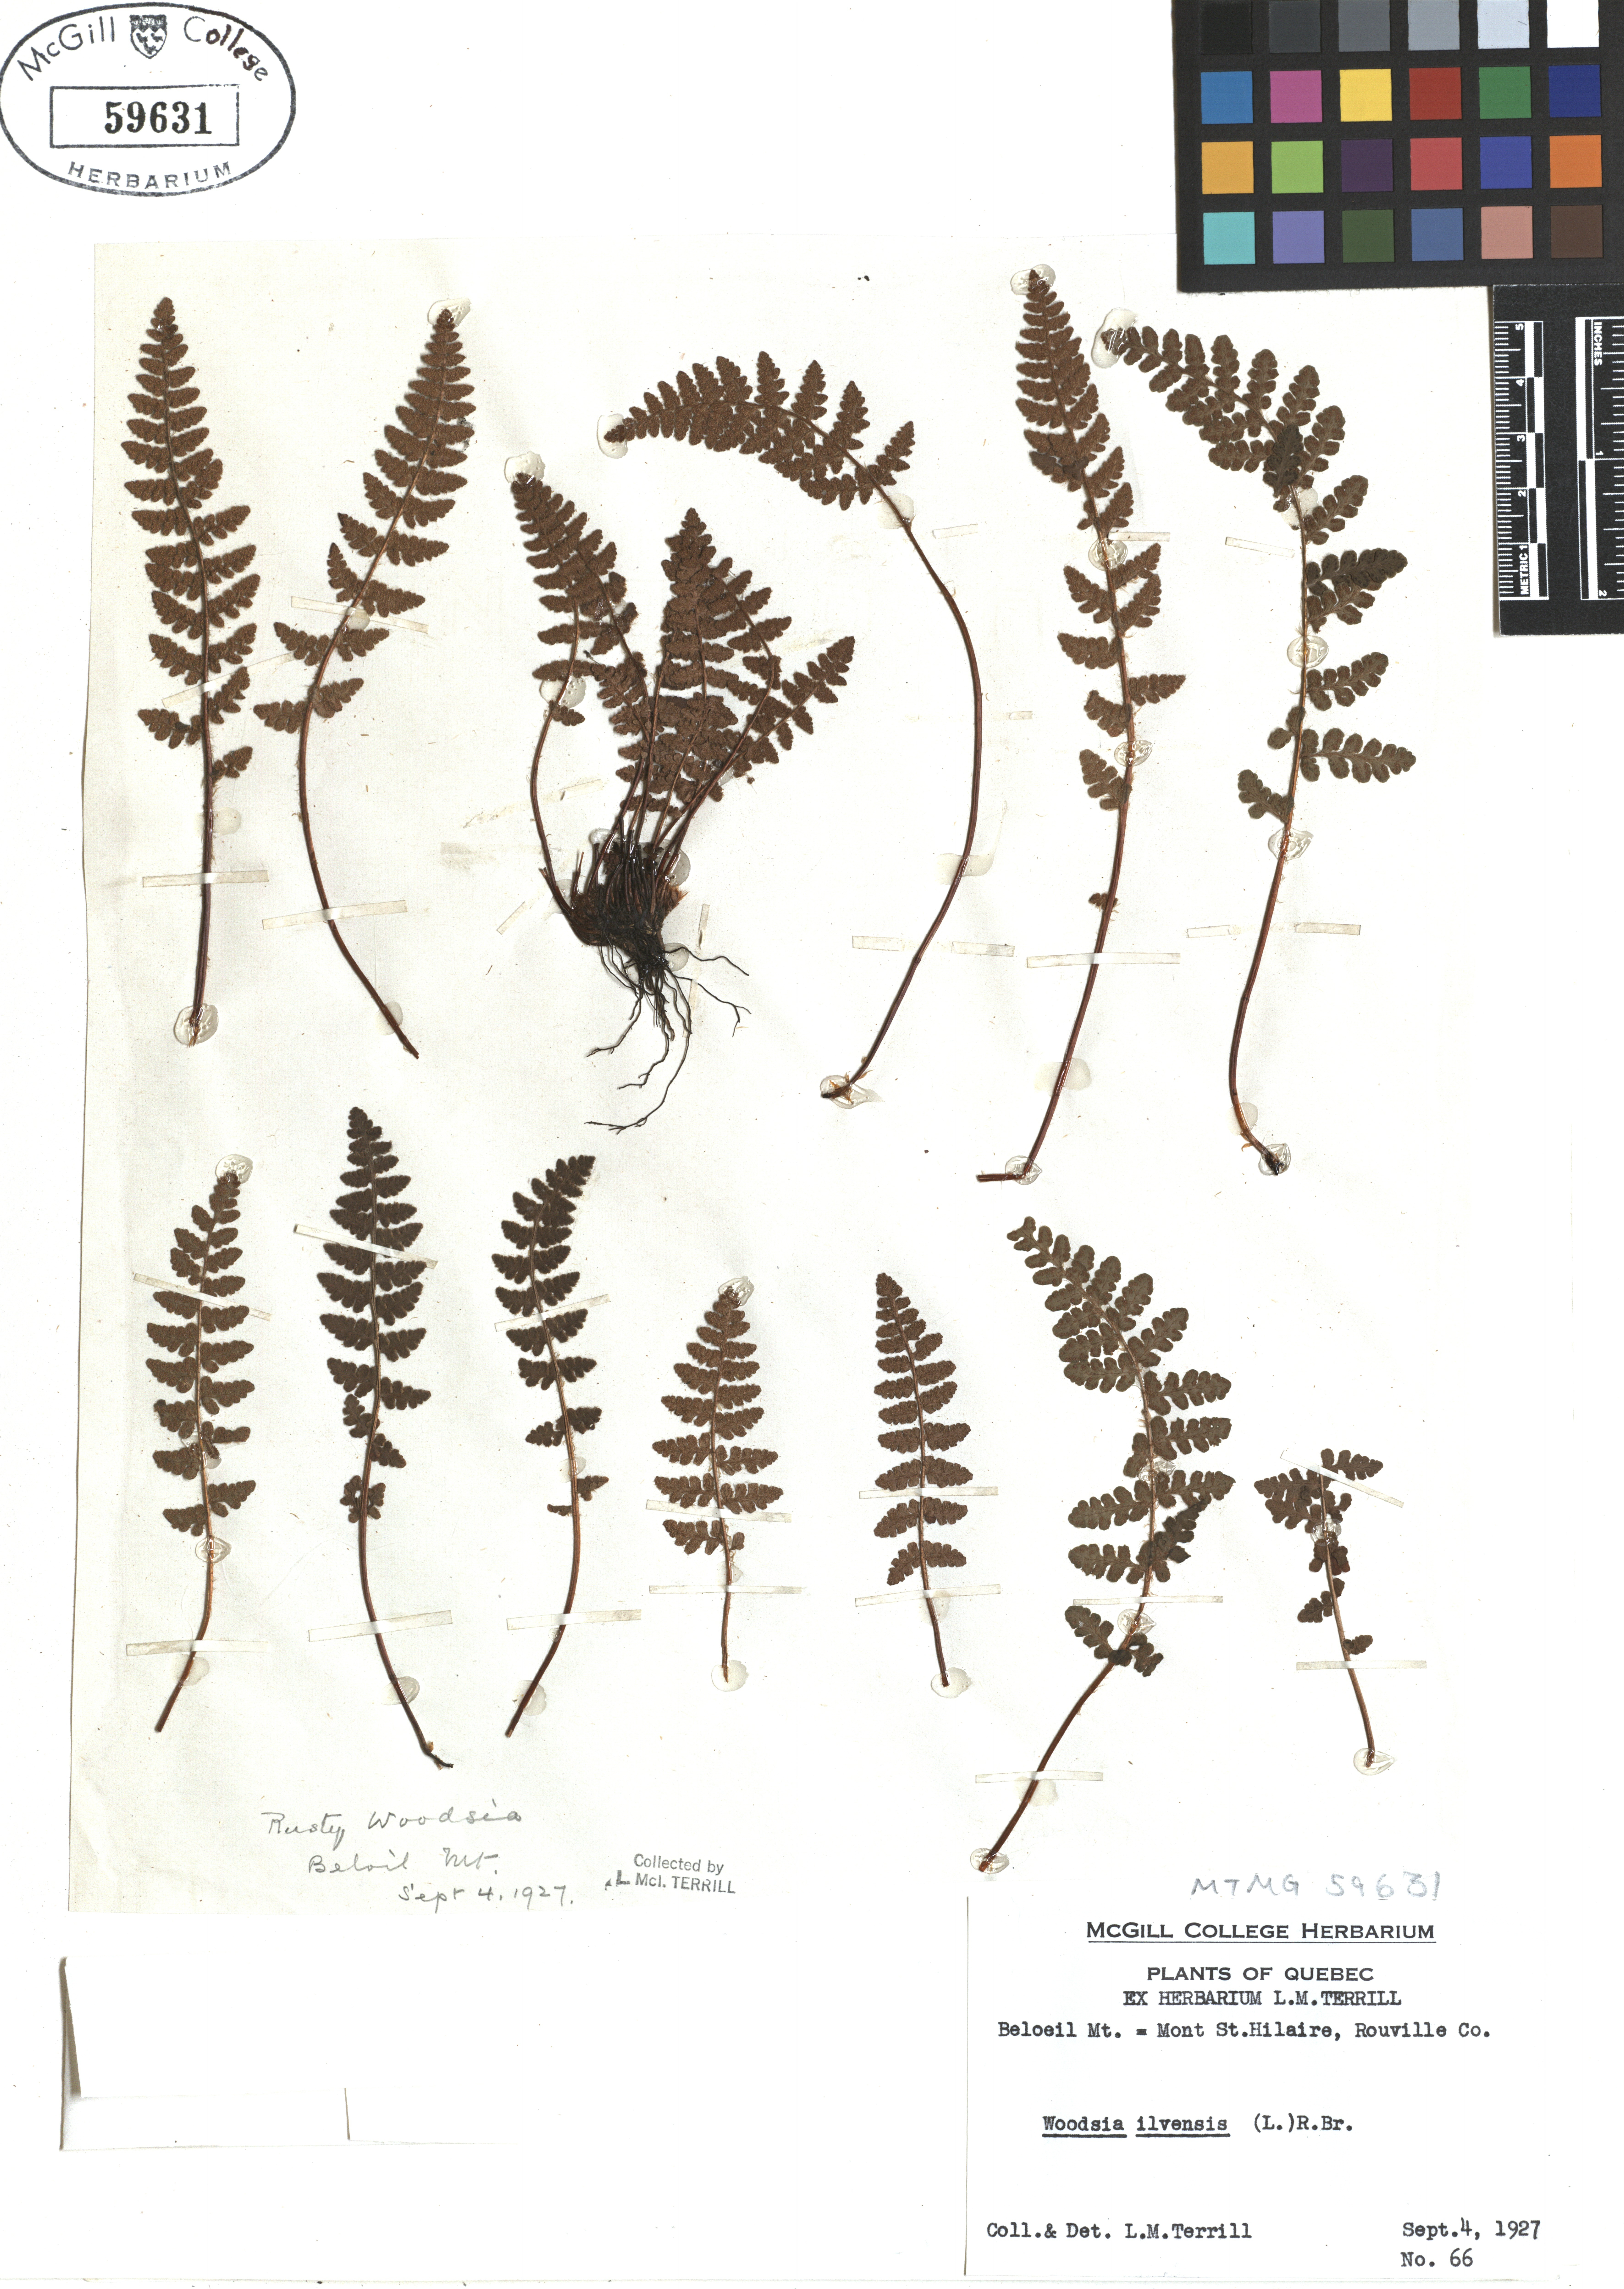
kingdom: Plantae
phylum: Tracheophyta
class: Polypodiopsida
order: Polypodiales
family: Woodsiaceae
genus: Woodsia
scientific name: Woodsia ilvensis
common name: Fragrant woodsia
